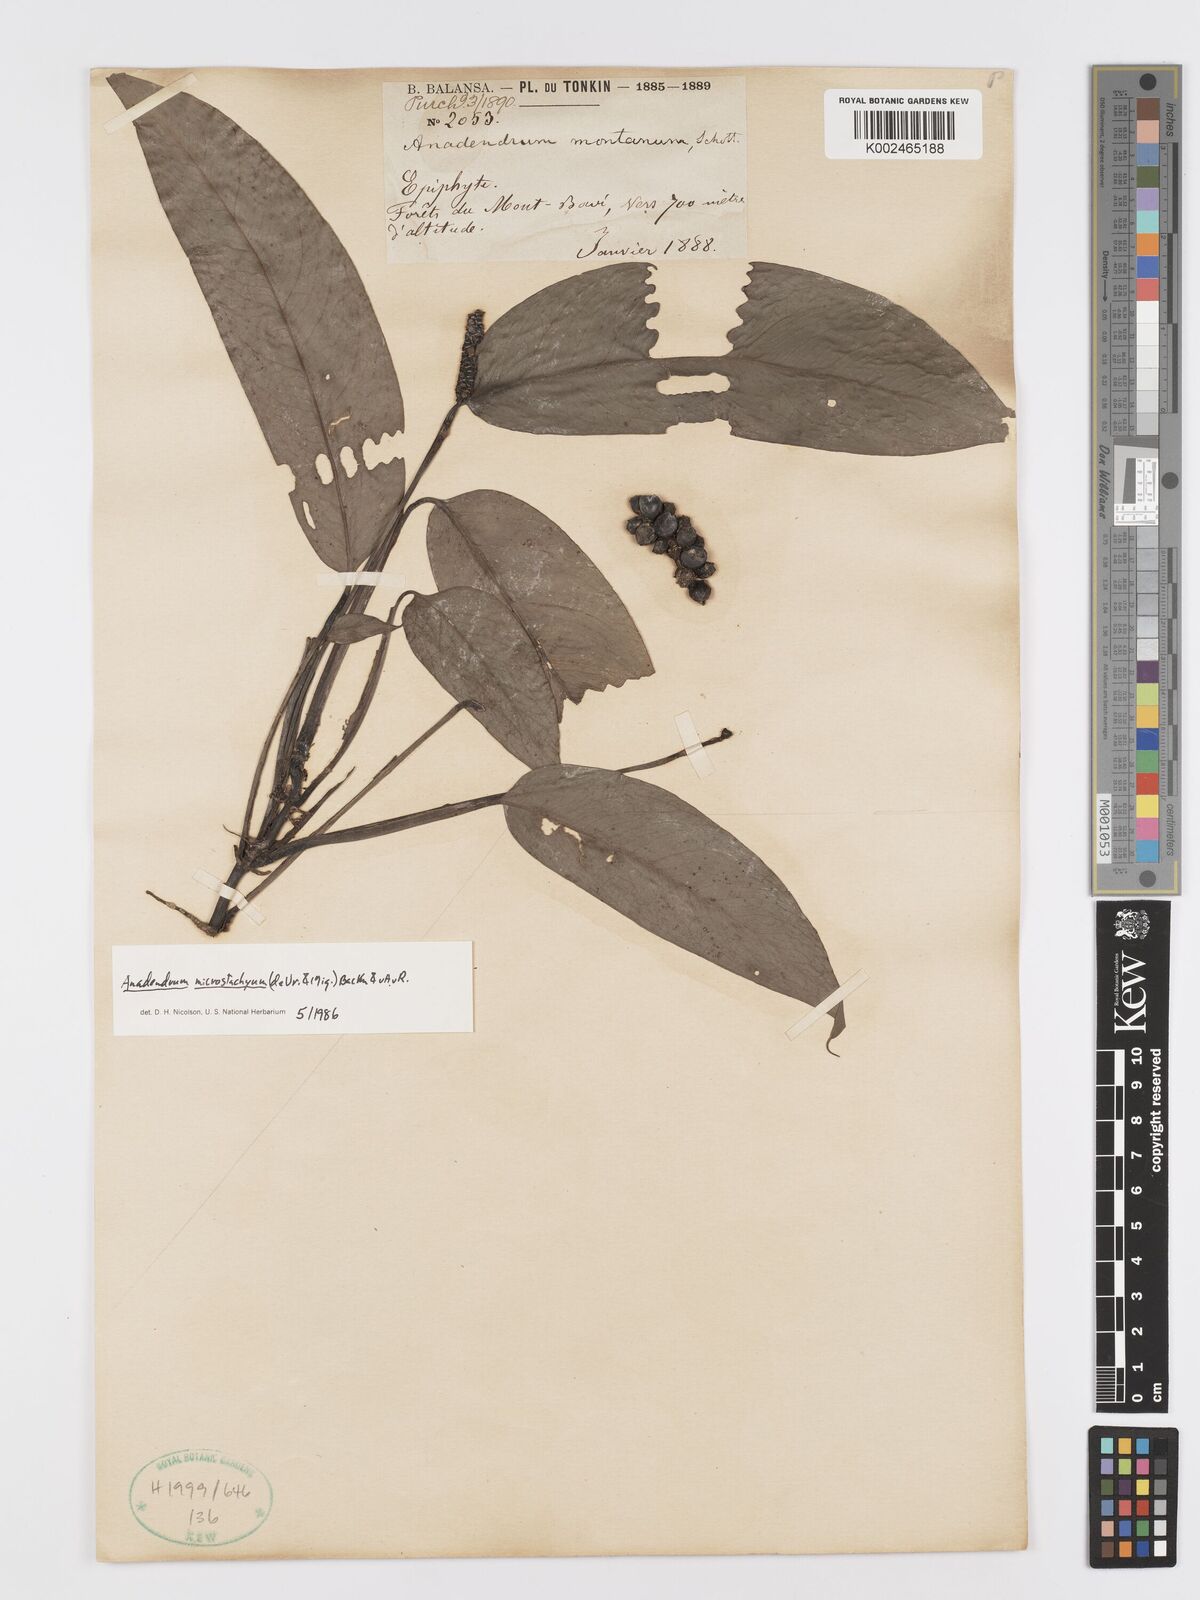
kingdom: Plantae
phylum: Tracheophyta
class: Liliopsida
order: Alismatales
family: Araceae
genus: Anadendrum
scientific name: Anadendrum microstachyum
